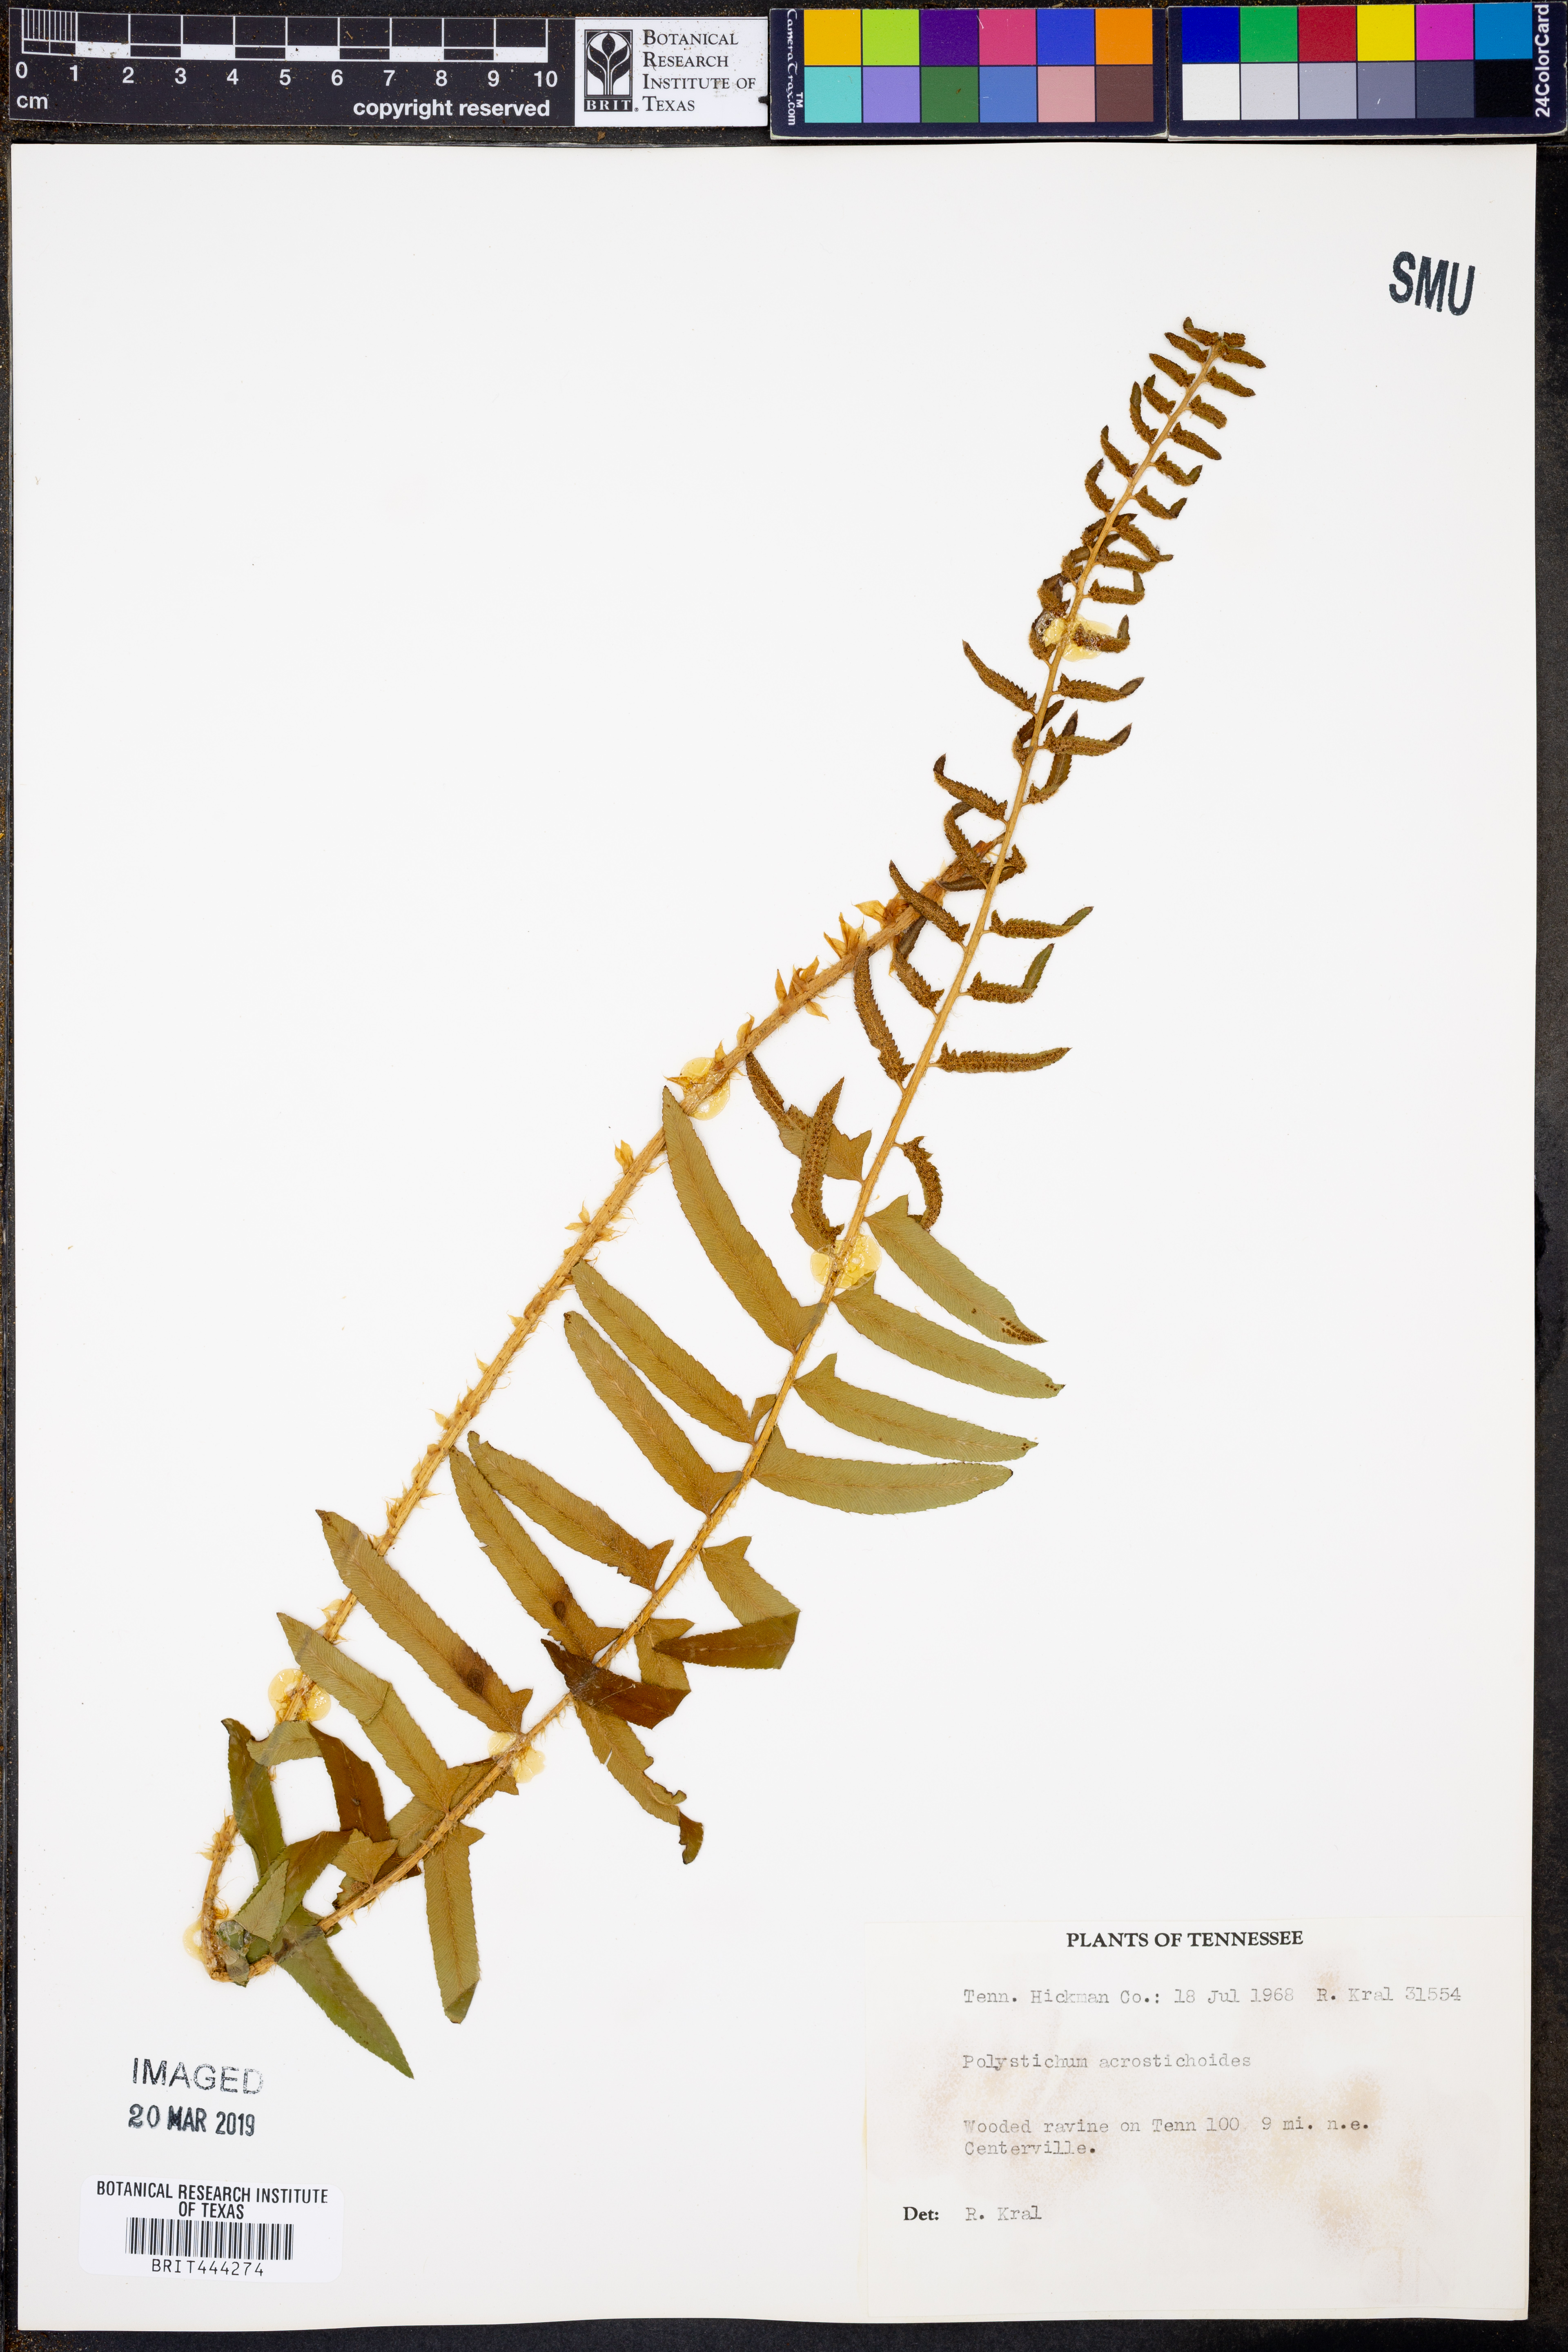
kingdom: Plantae
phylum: Tracheophyta
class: Polypodiopsida
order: Polypodiales
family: Dryopteridaceae
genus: Polystichum
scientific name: Polystichum acrostichoides
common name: Christmas fern
